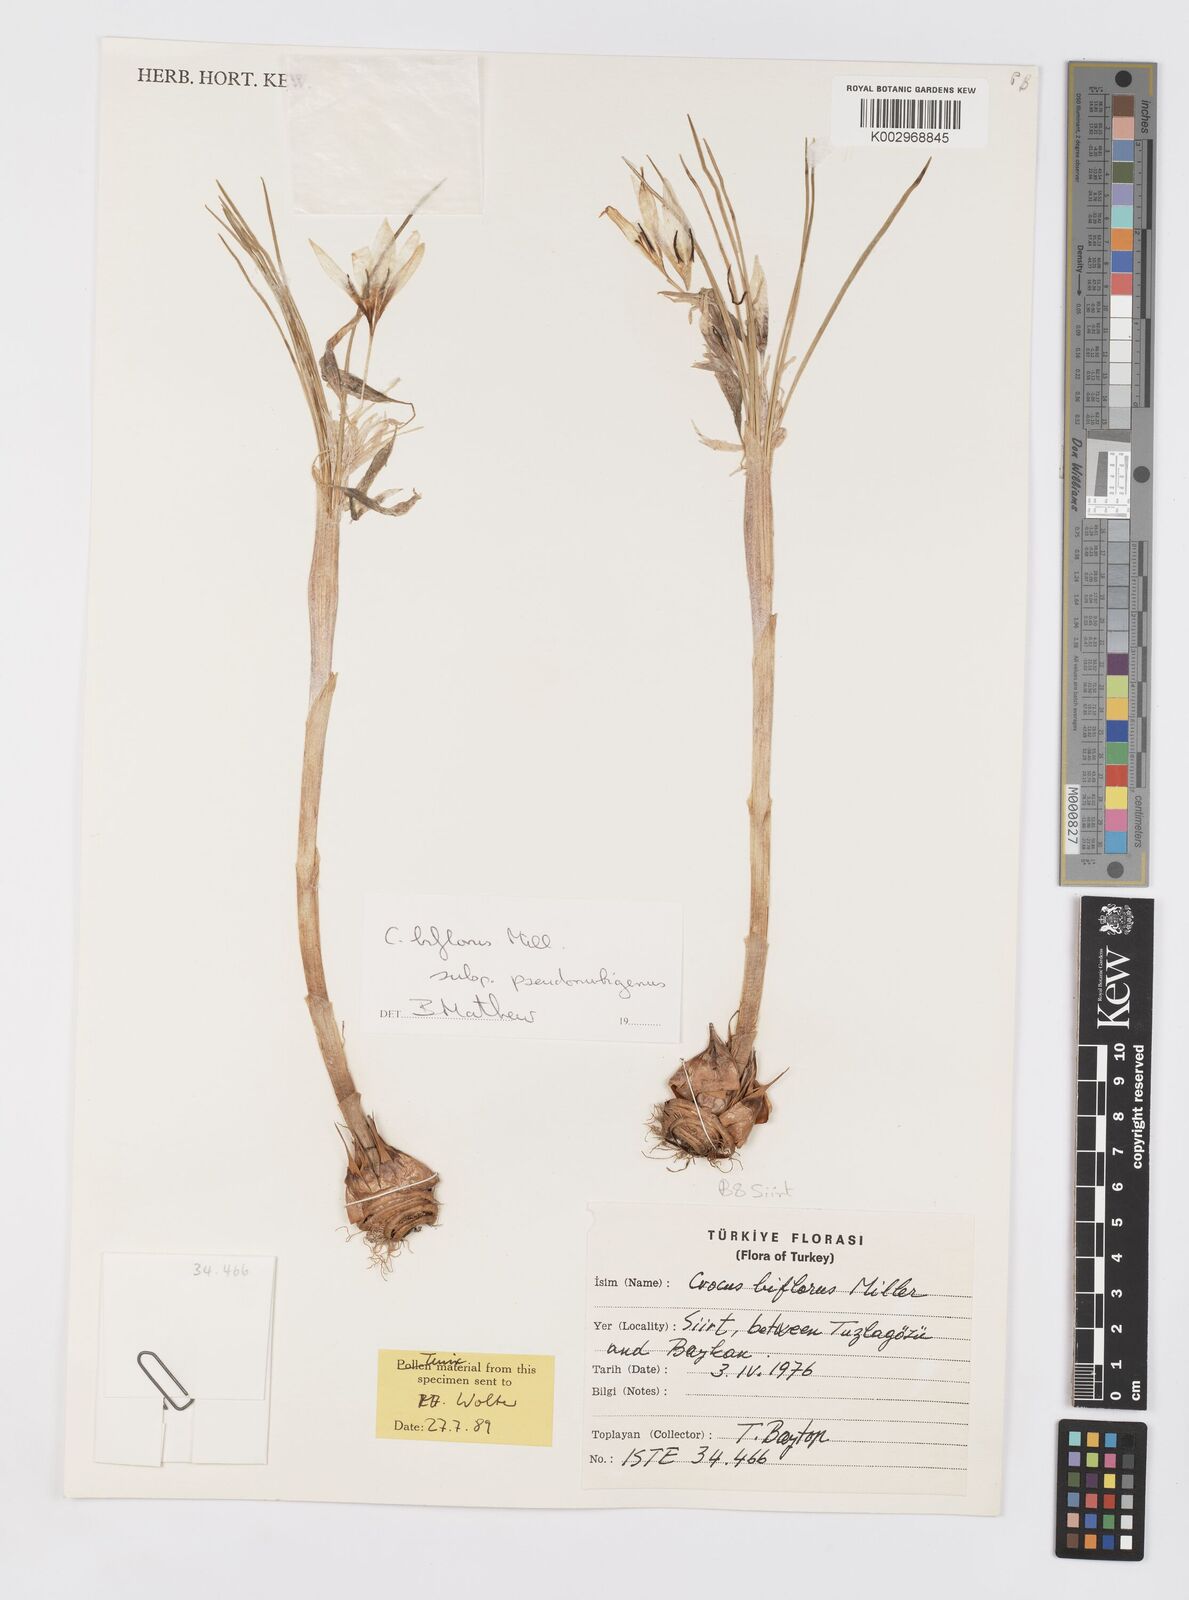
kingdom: Plantae
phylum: Tracheophyta
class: Liliopsida
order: Asparagales
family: Iridaceae
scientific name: Iridaceae
